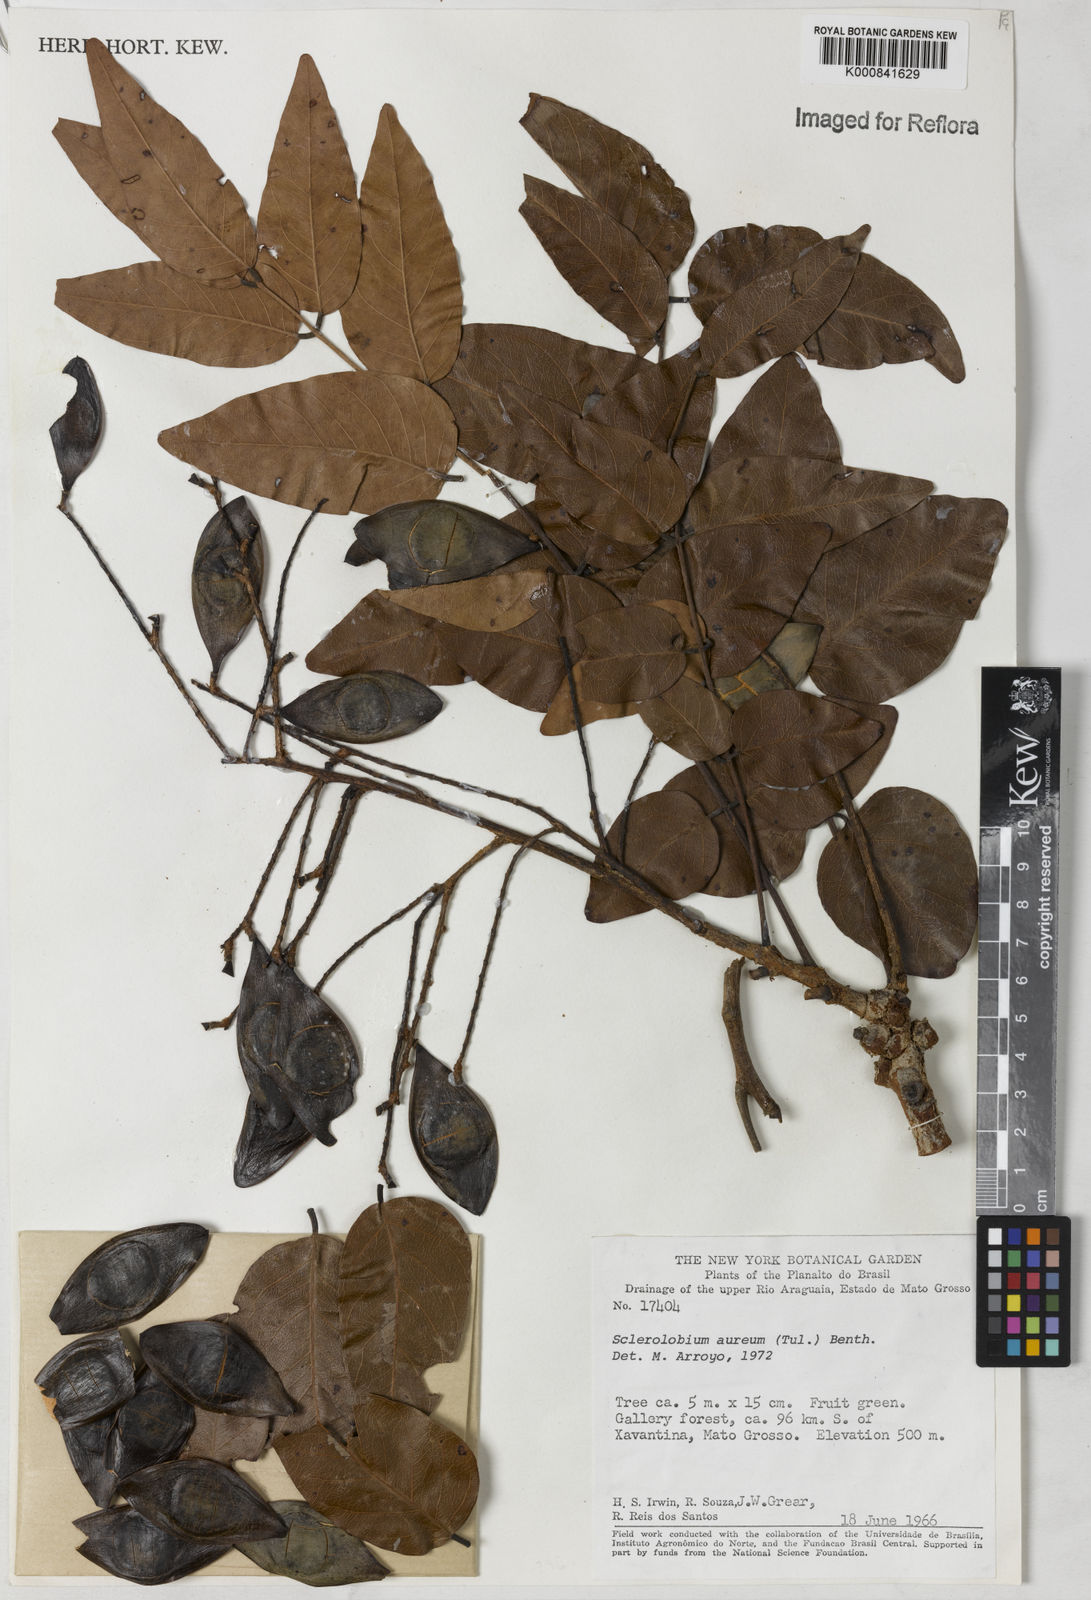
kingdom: Plantae
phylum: Tracheophyta
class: Magnoliopsida
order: Fabales
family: Fabaceae
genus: Tachigali
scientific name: Tachigali aurea
